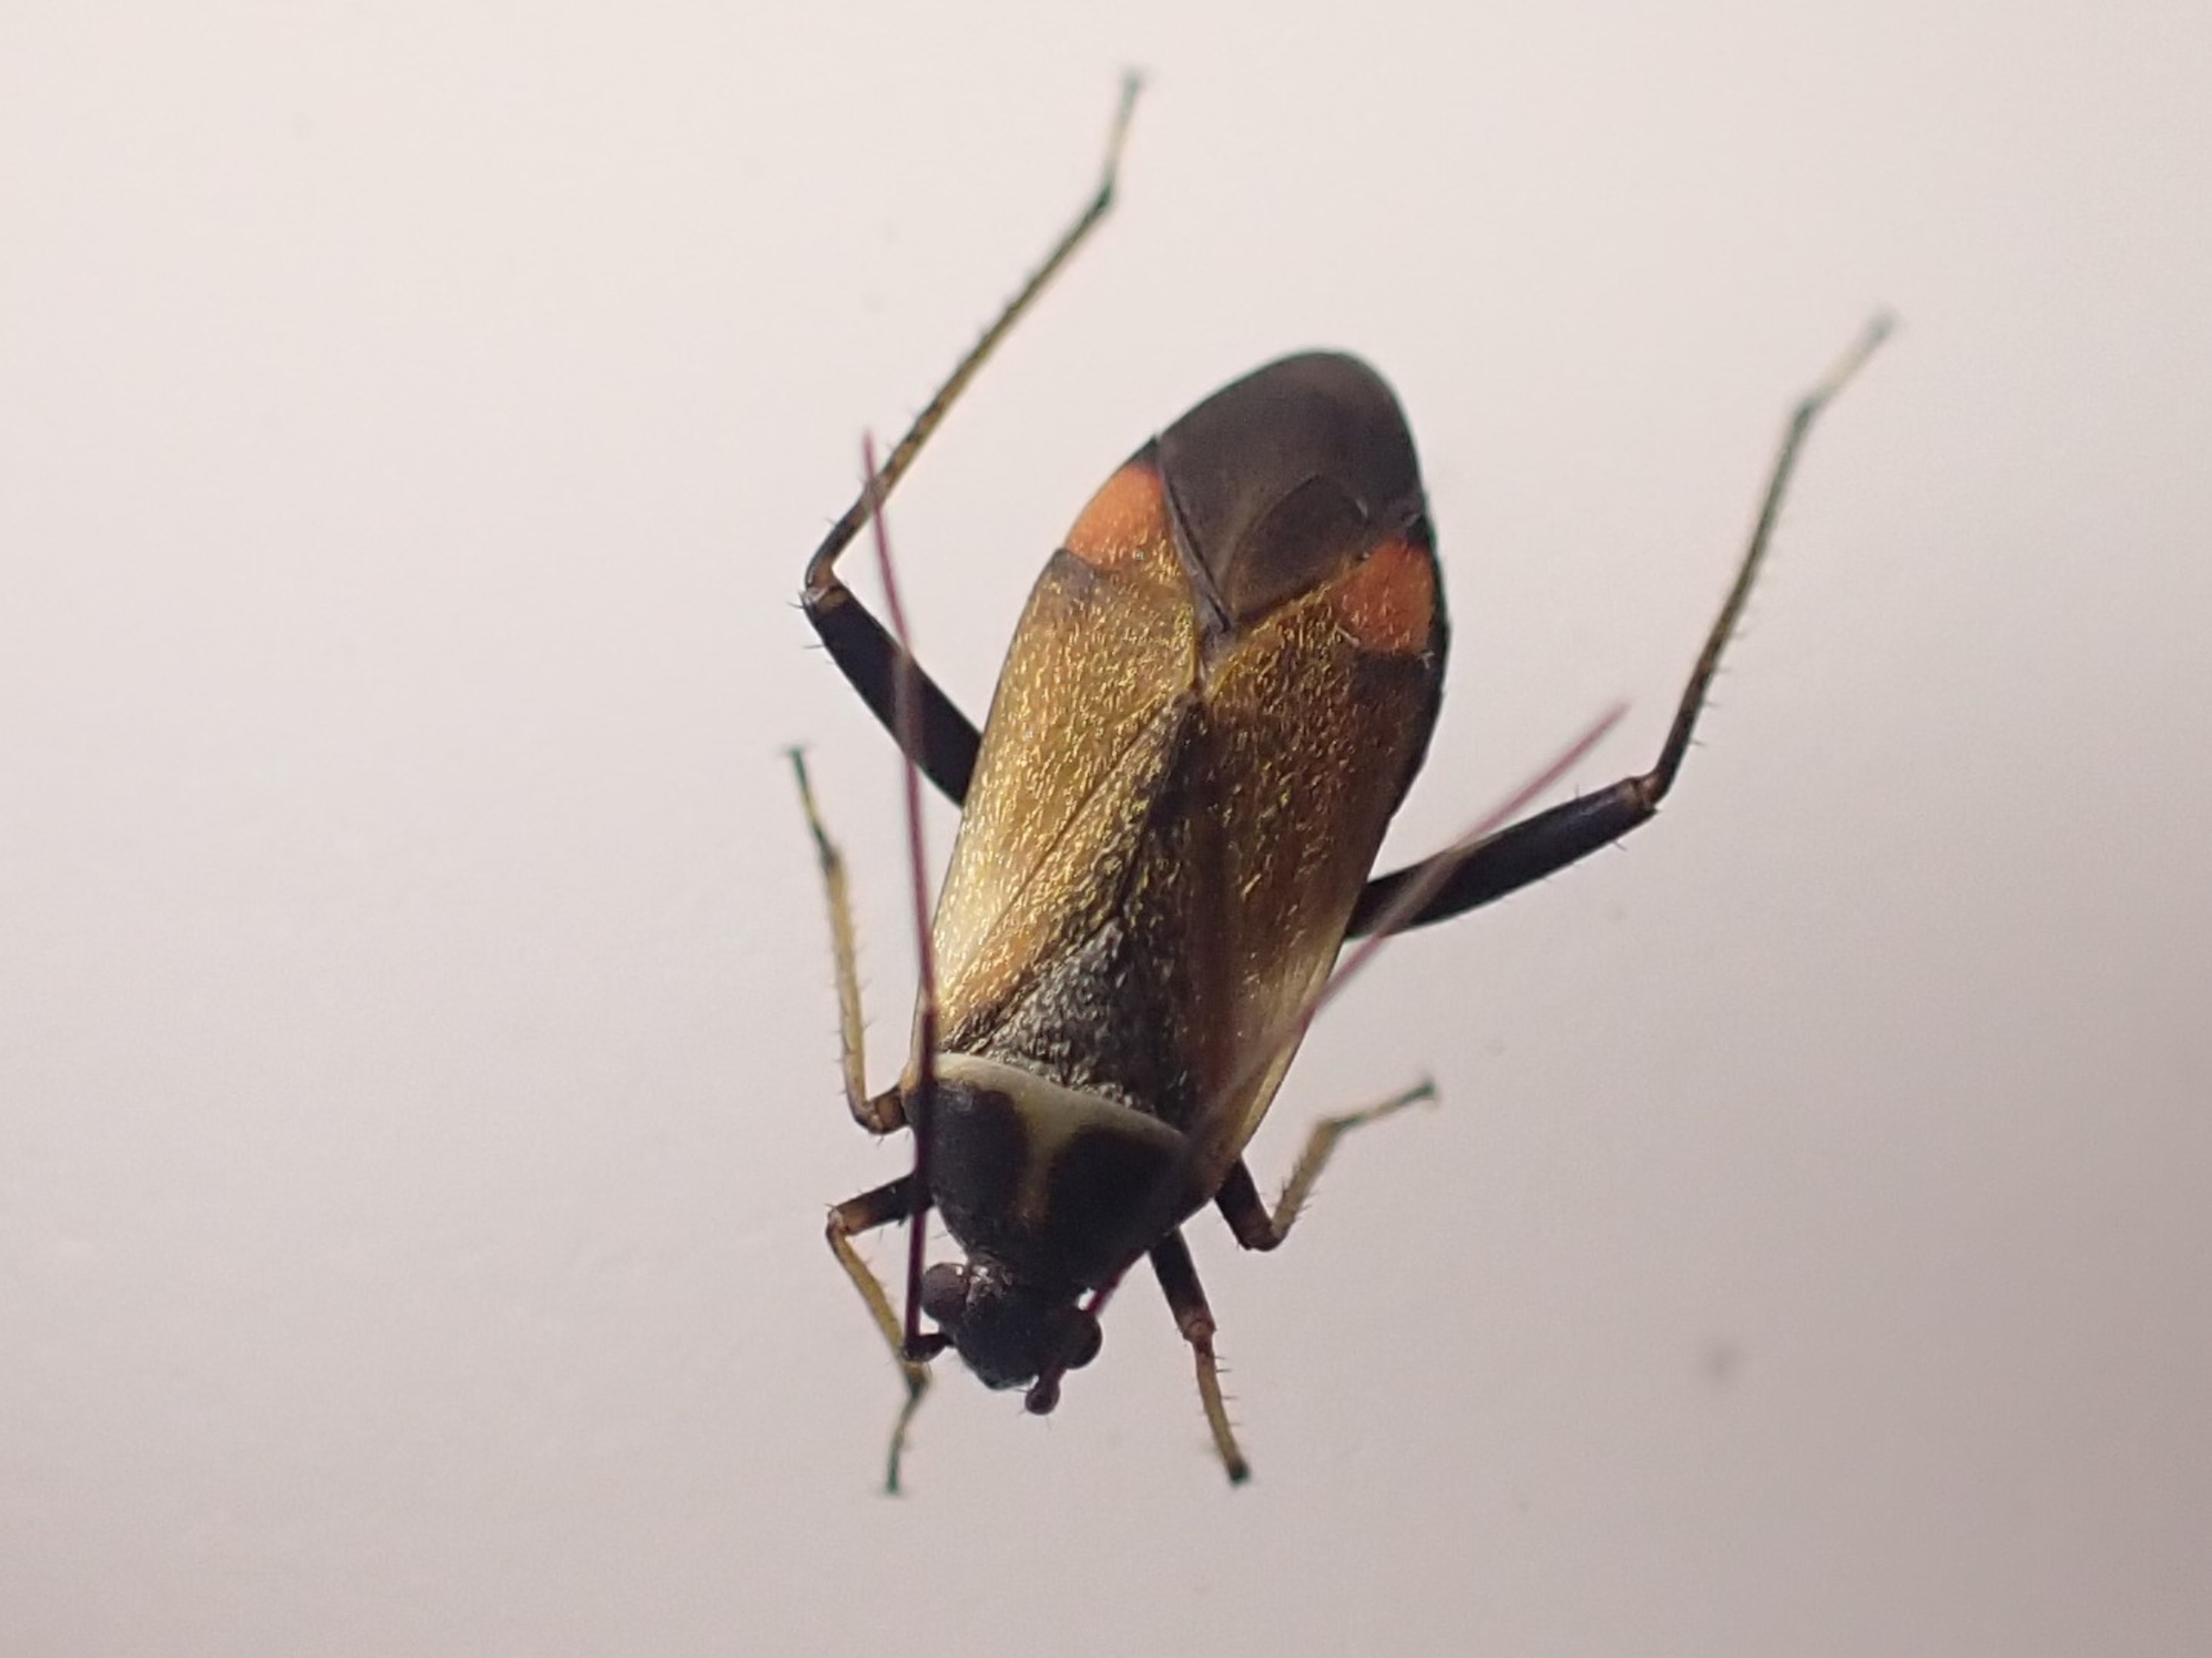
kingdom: Animalia
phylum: Arthropoda
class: Insecta
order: Hemiptera
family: Miridae
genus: Adelphocoris
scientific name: Adelphocoris seticornis
